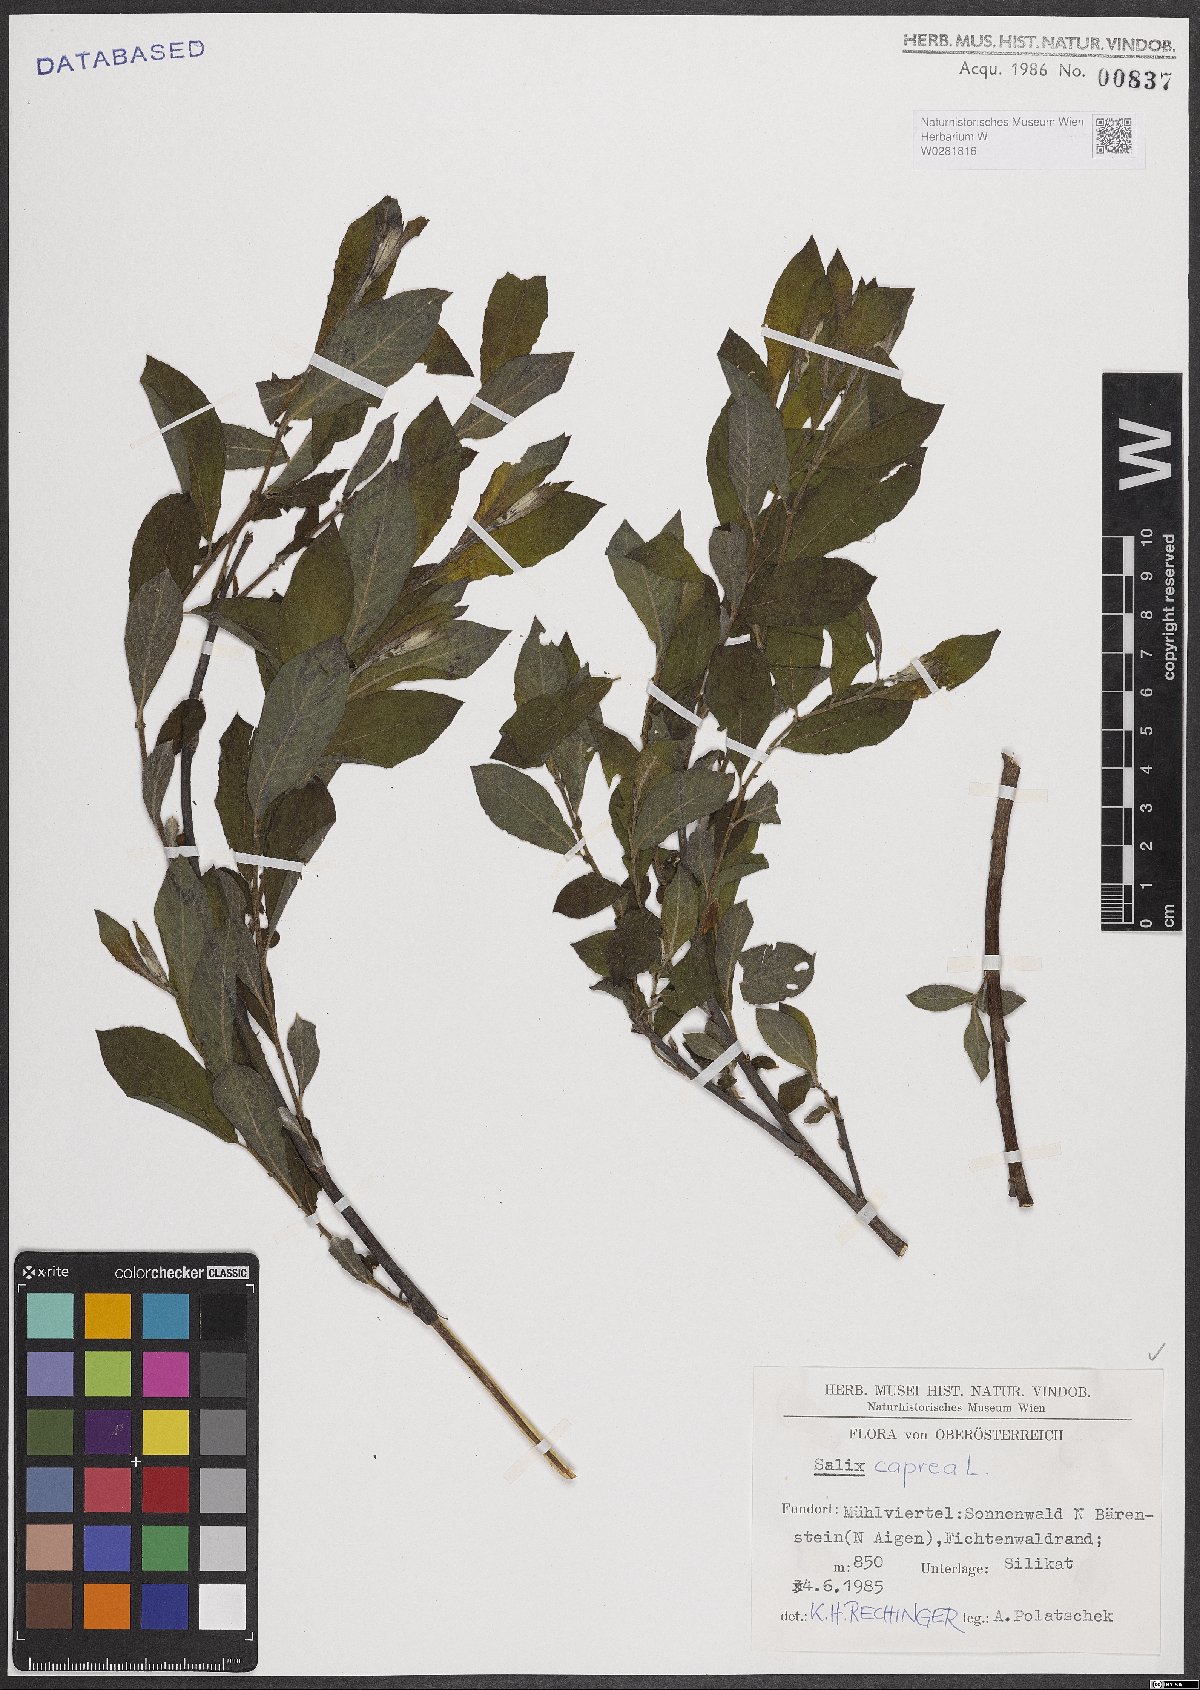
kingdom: Plantae
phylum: Tracheophyta
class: Magnoliopsida
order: Malpighiales
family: Salicaceae
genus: Salix
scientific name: Salix caprea
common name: Goat willow
